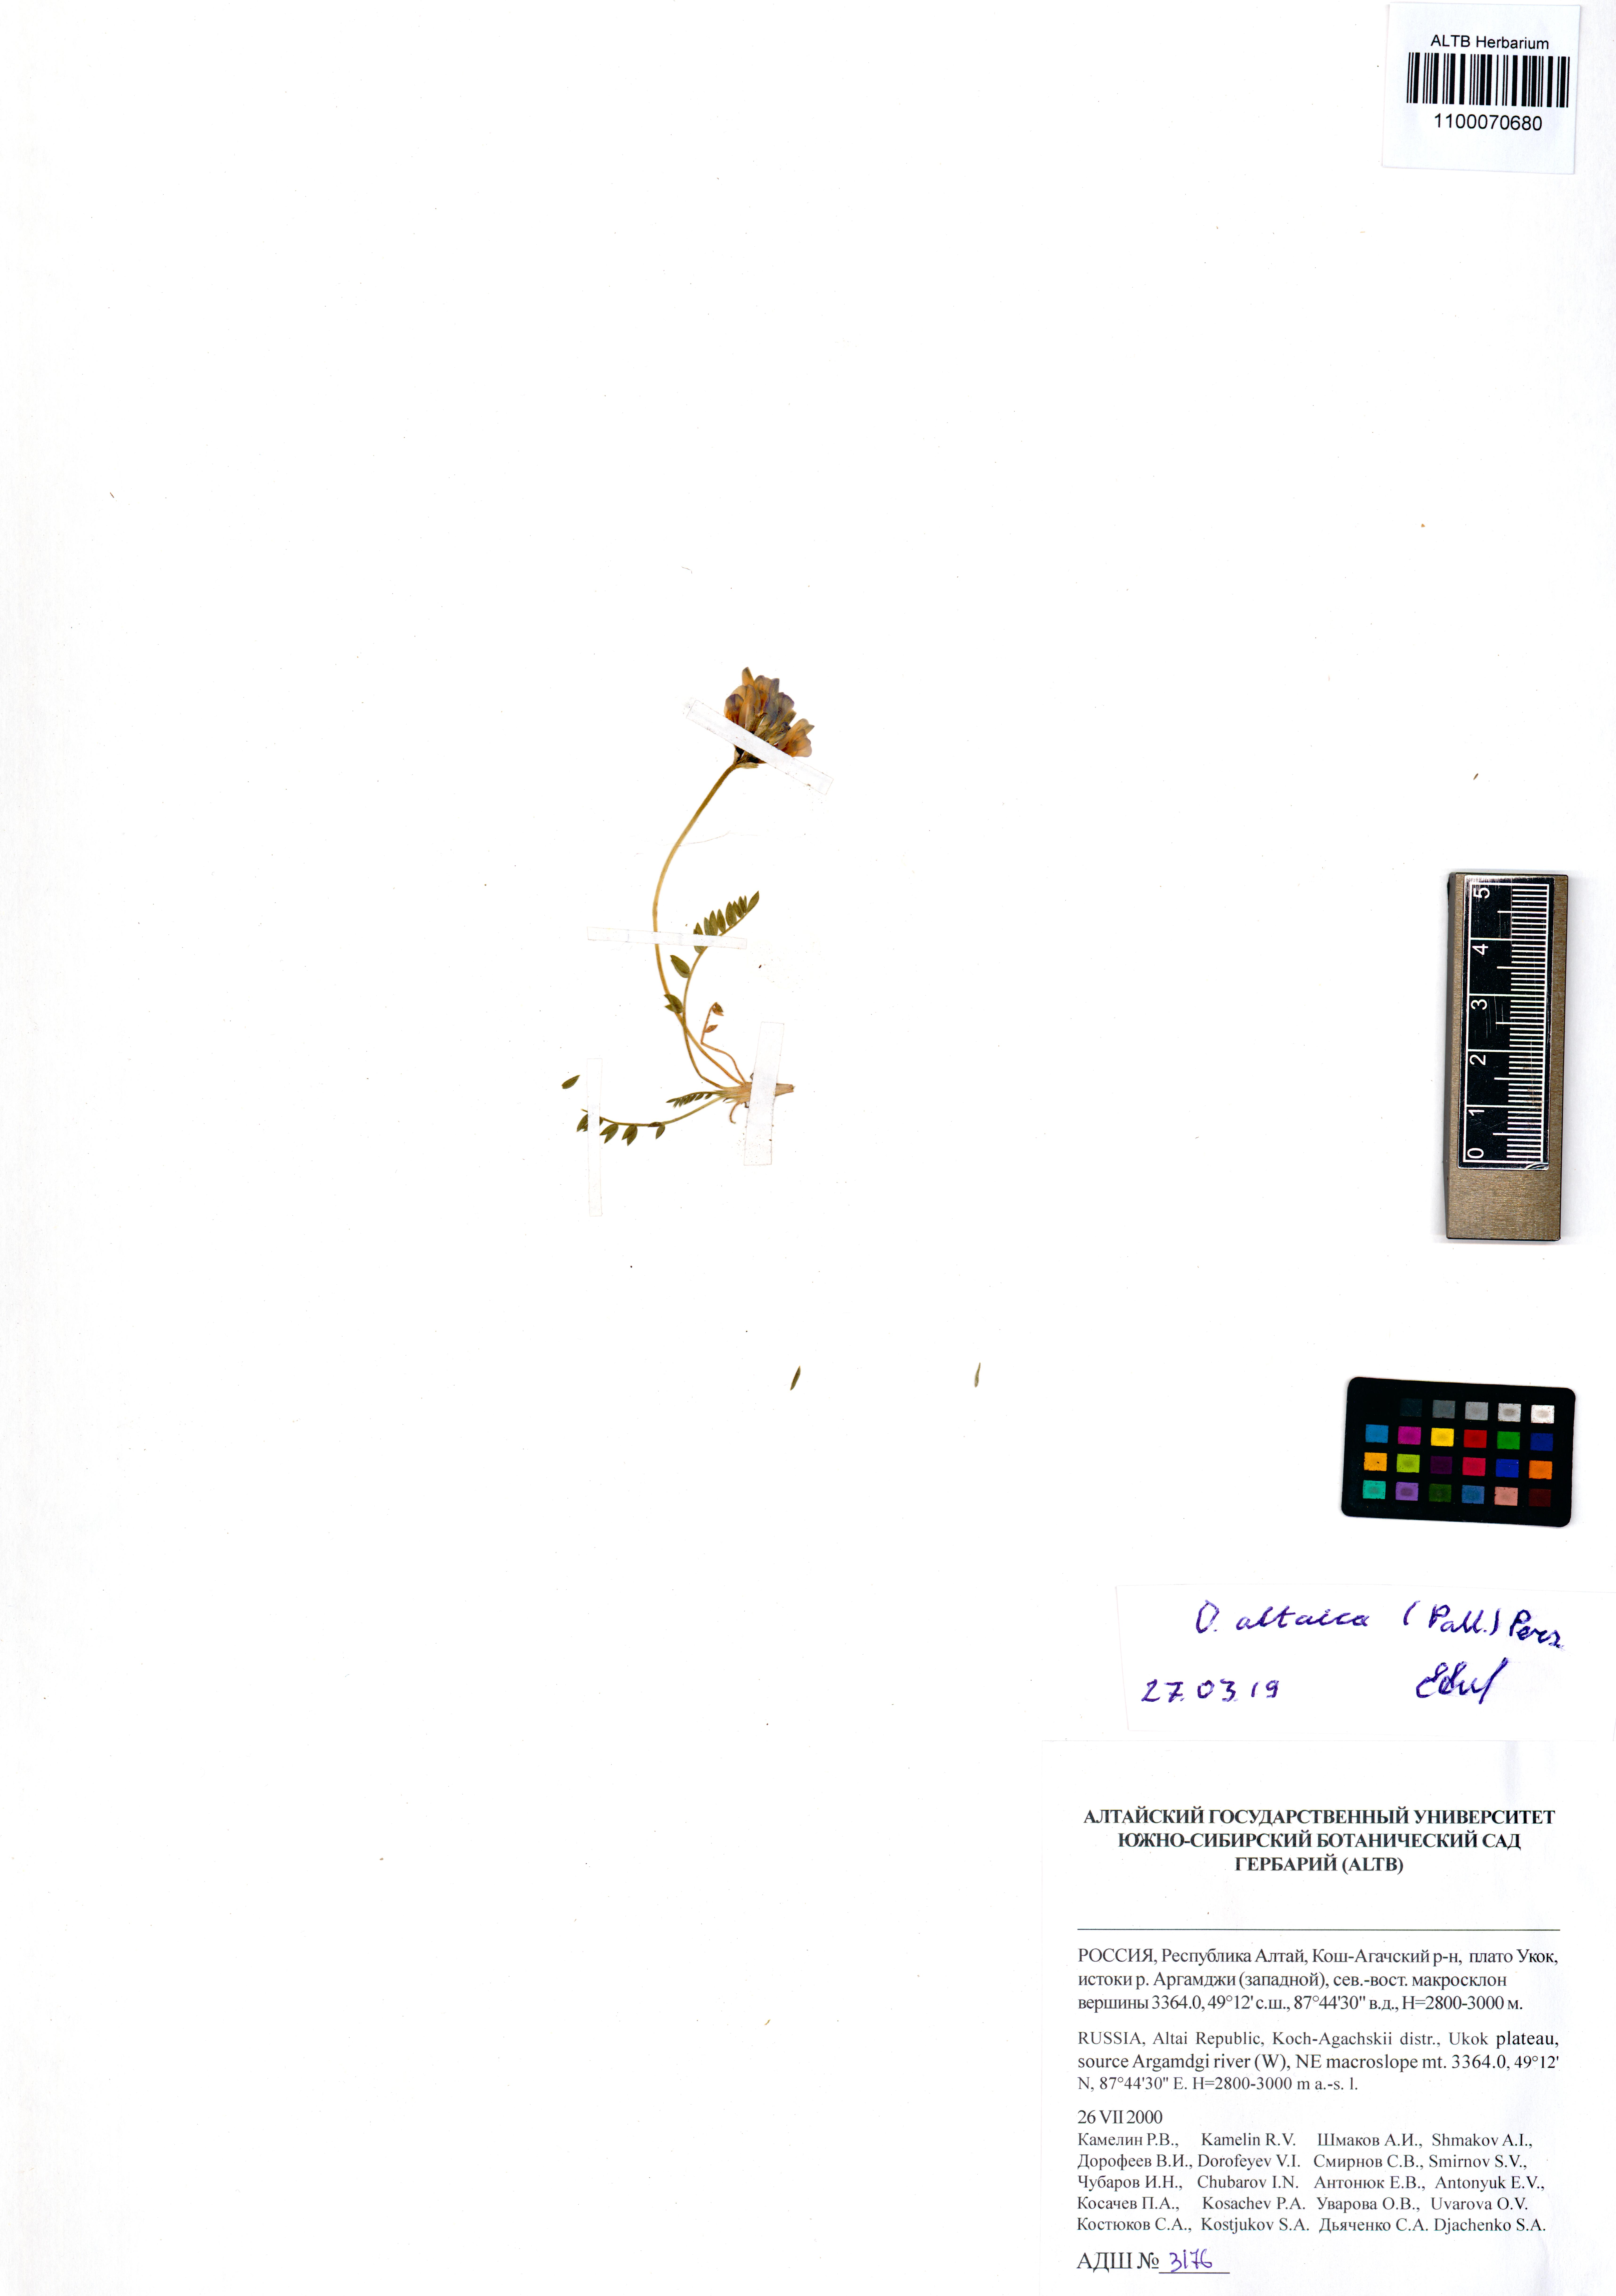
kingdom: Plantae
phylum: Tracheophyta
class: Magnoliopsida
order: Fabales
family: Fabaceae
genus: Oxytropis
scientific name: Oxytropis altaica
